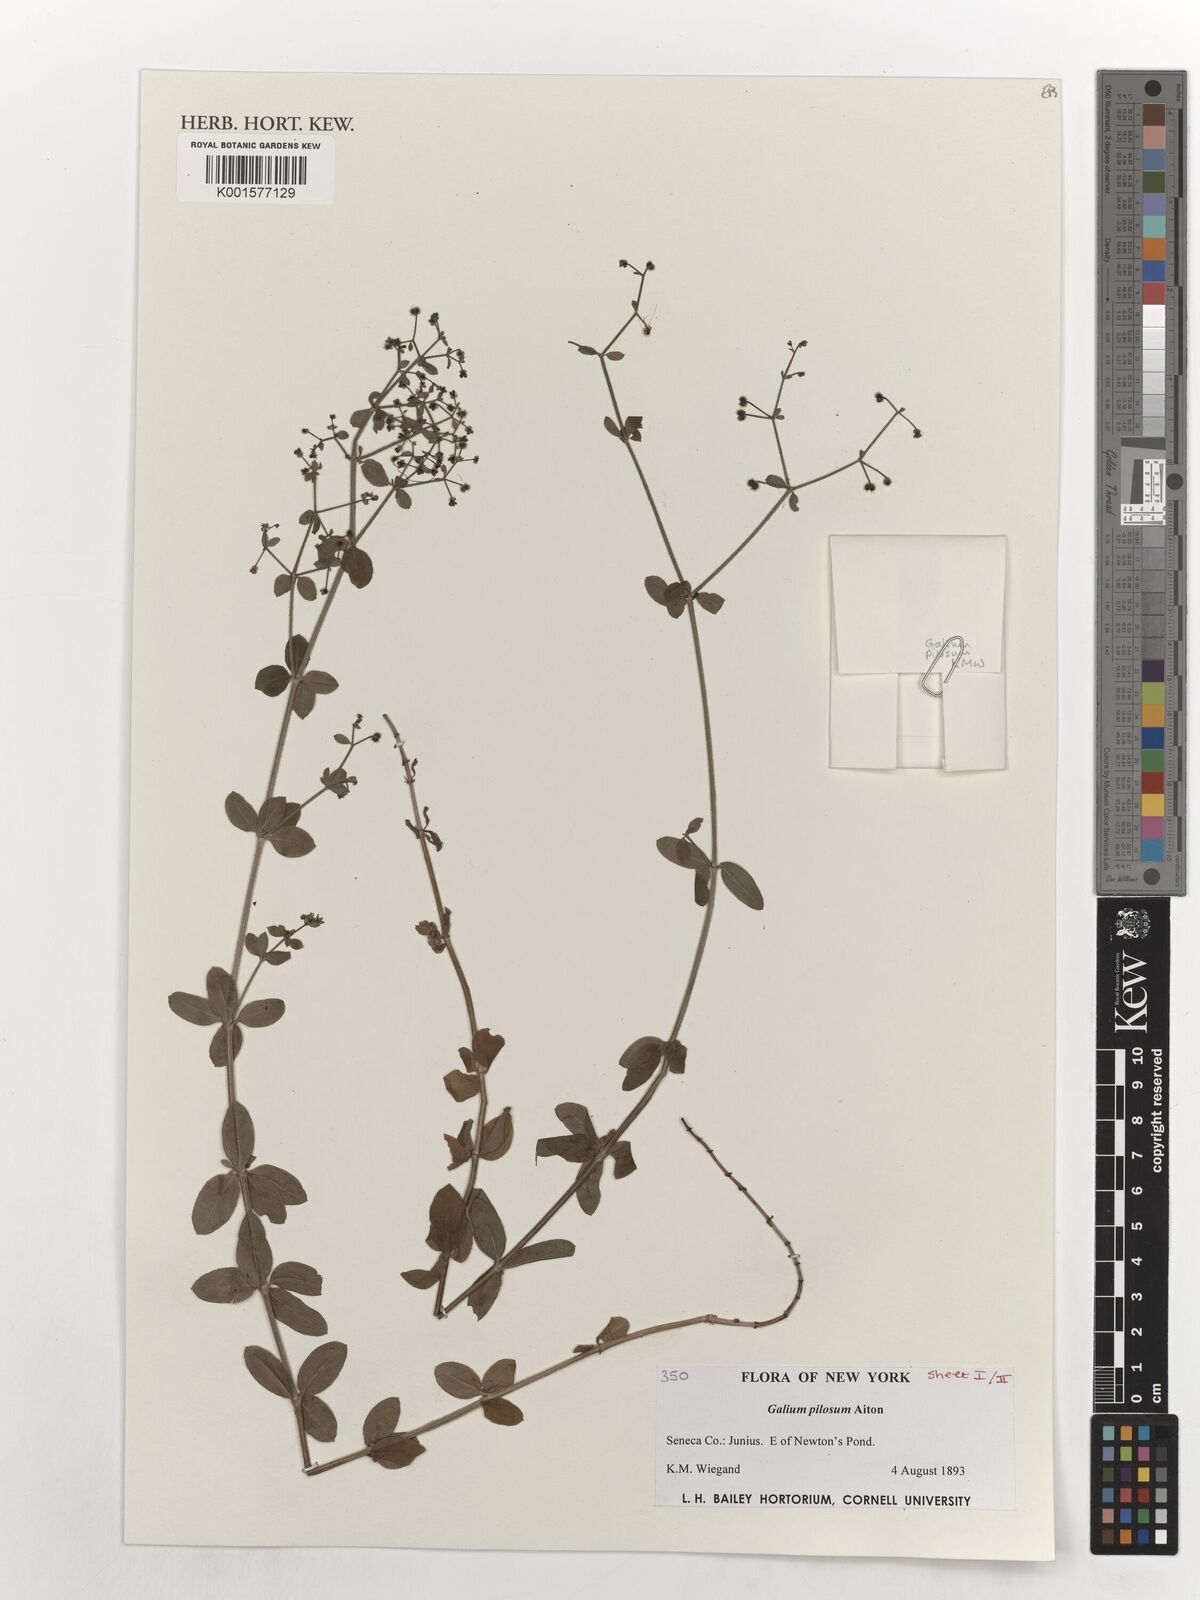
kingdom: Plantae
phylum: Tracheophyta
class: Magnoliopsida
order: Gentianales
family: Rubiaceae
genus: Galium
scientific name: Galium pilosum
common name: Hairy bedstraw
